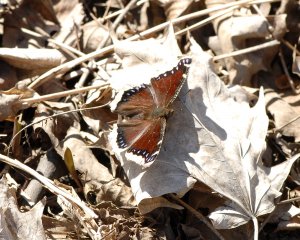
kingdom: Animalia
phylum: Arthropoda
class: Insecta
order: Lepidoptera
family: Nymphalidae
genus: Nymphalis
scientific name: Nymphalis antiopa
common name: Mourning Cloak
